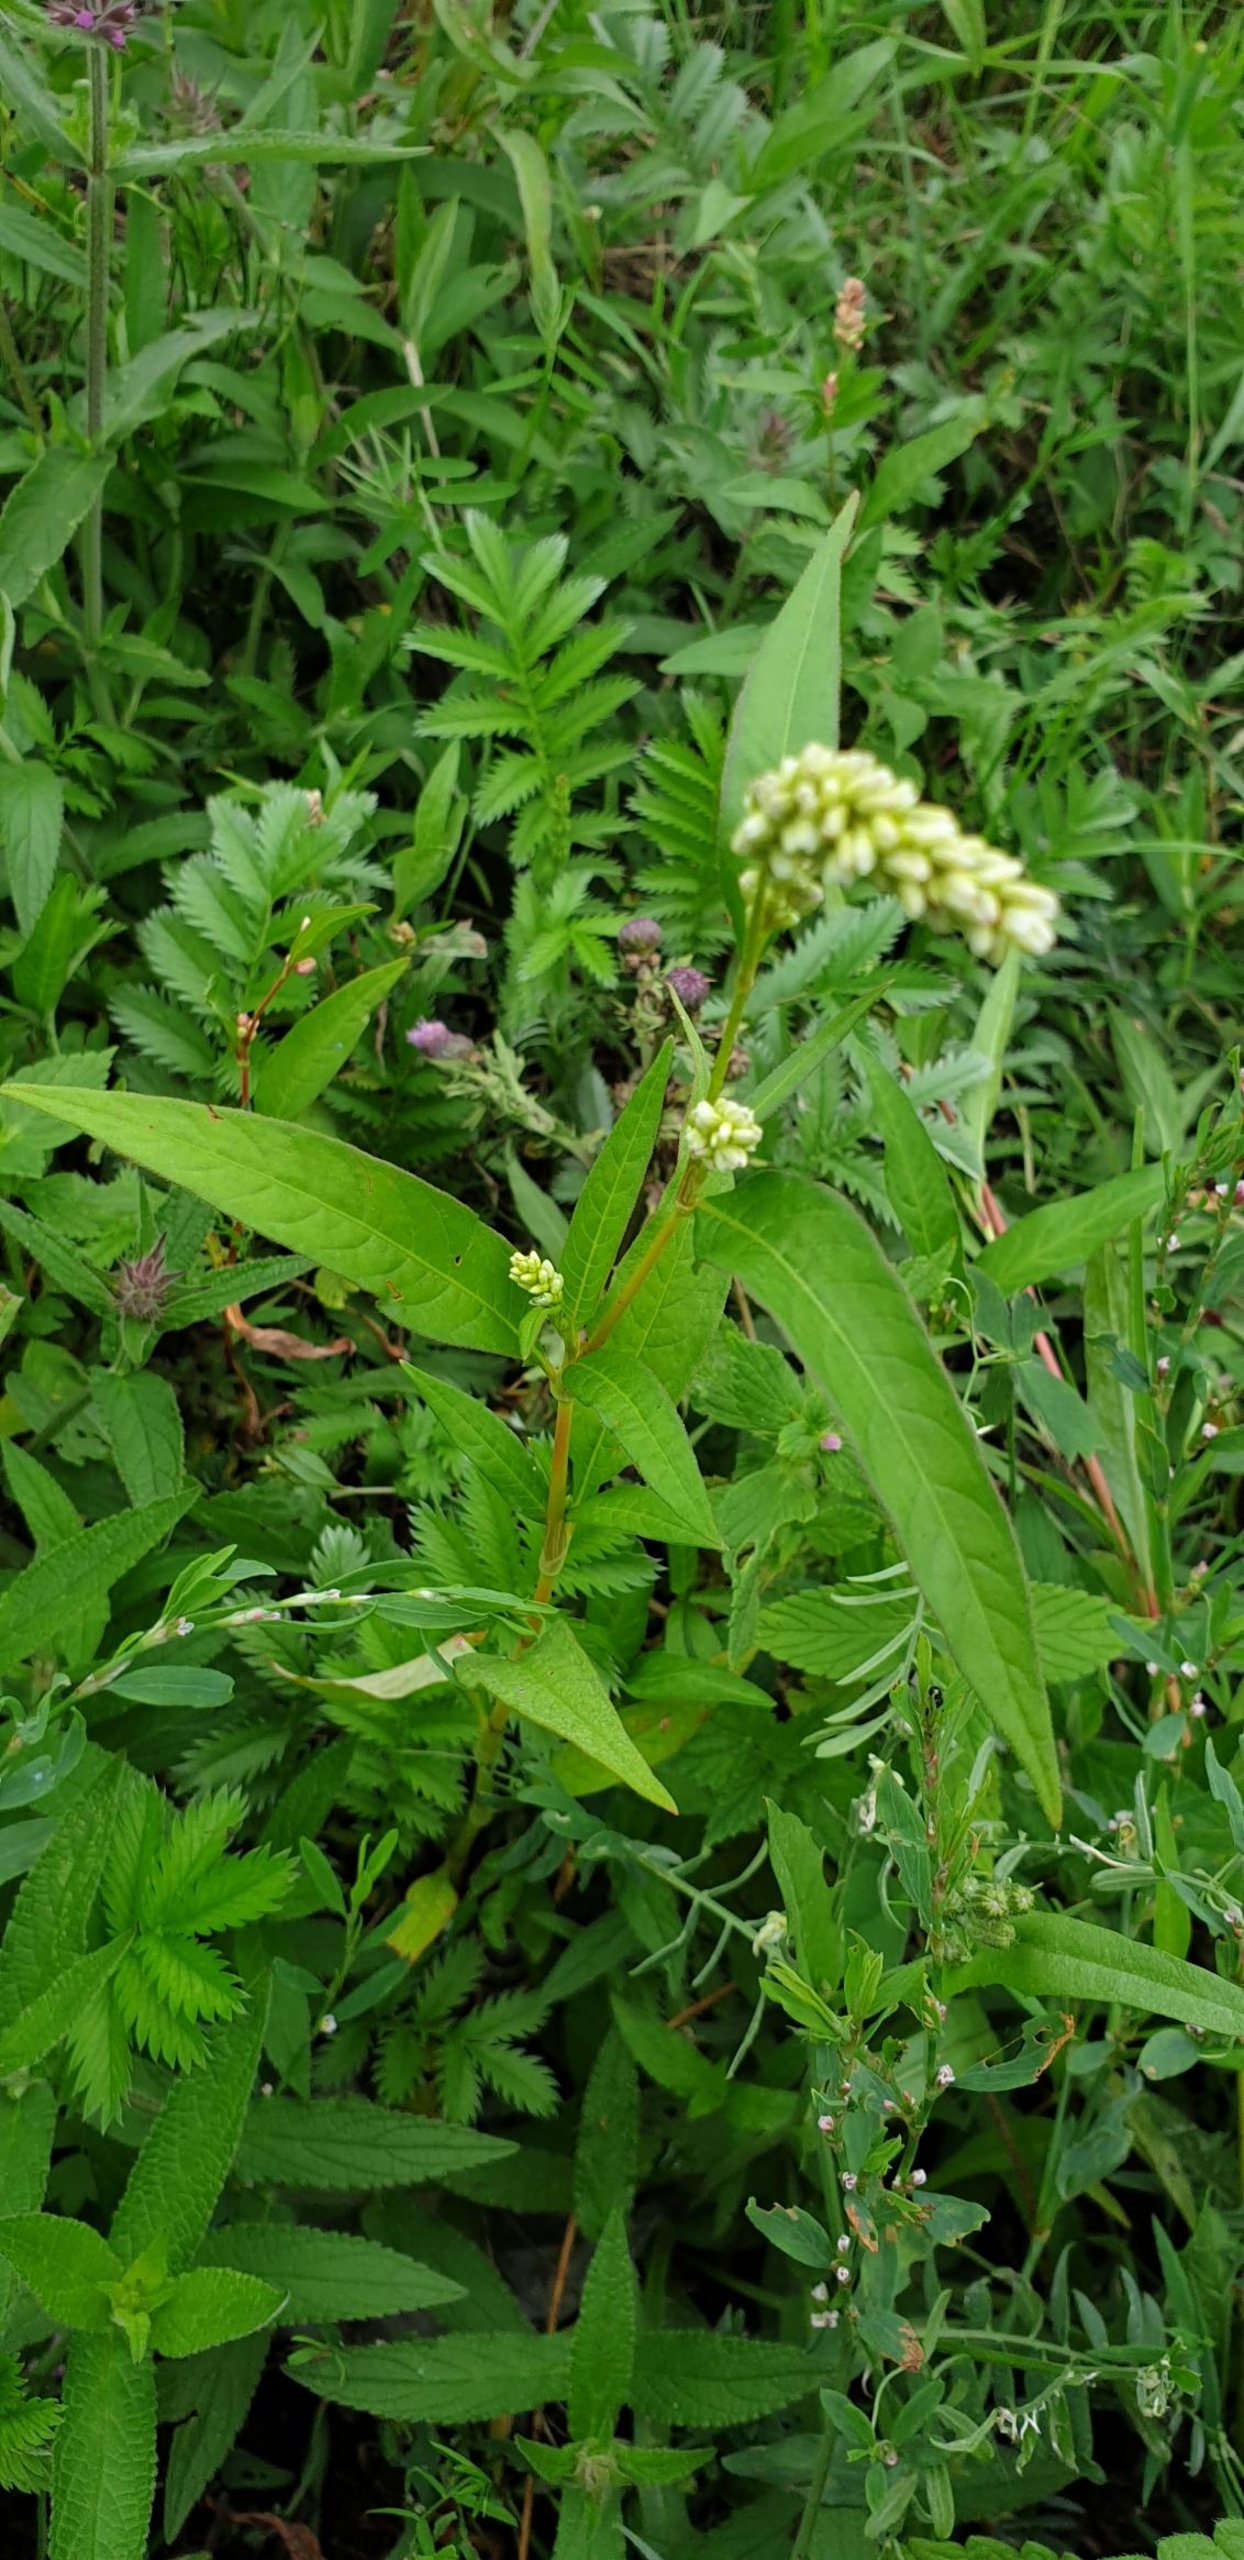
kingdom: Plantae
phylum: Tracheophyta
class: Magnoliopsida
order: Caryophyllales
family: Polygonaceae
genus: Persicaria
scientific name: Persicaria lapathifolia
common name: Knudet pileurt
